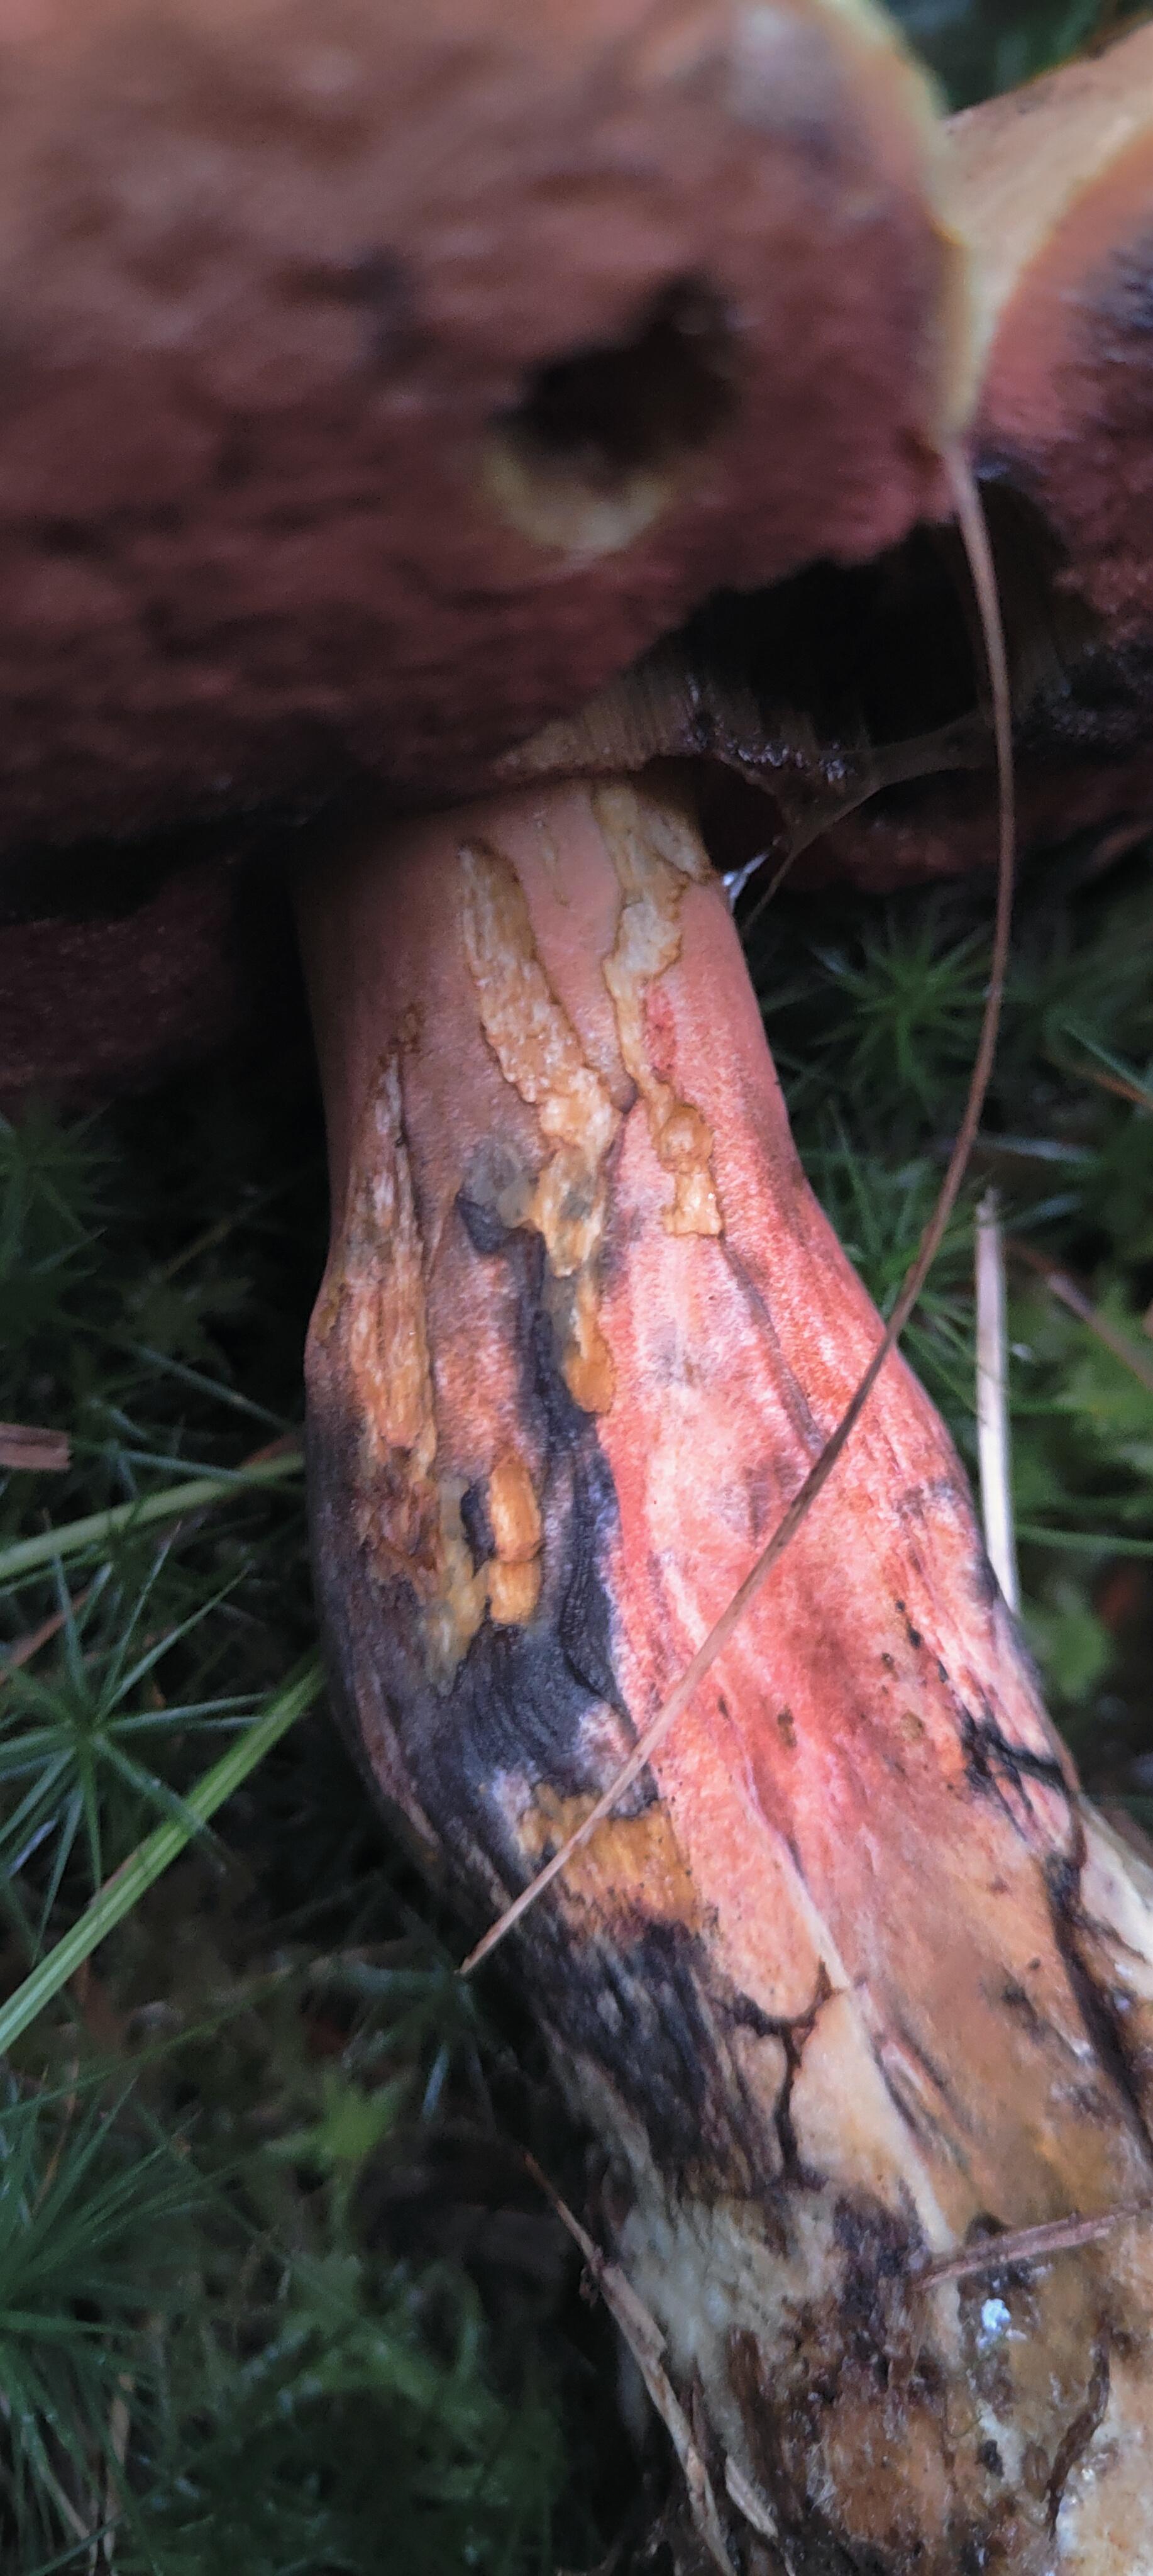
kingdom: Fungi
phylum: Basidiomycota
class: Agaricomycetes
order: Boletales
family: Boletaceae
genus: Neoboletus
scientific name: Neoboletus erythropus
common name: punktstokket indigorørhat
